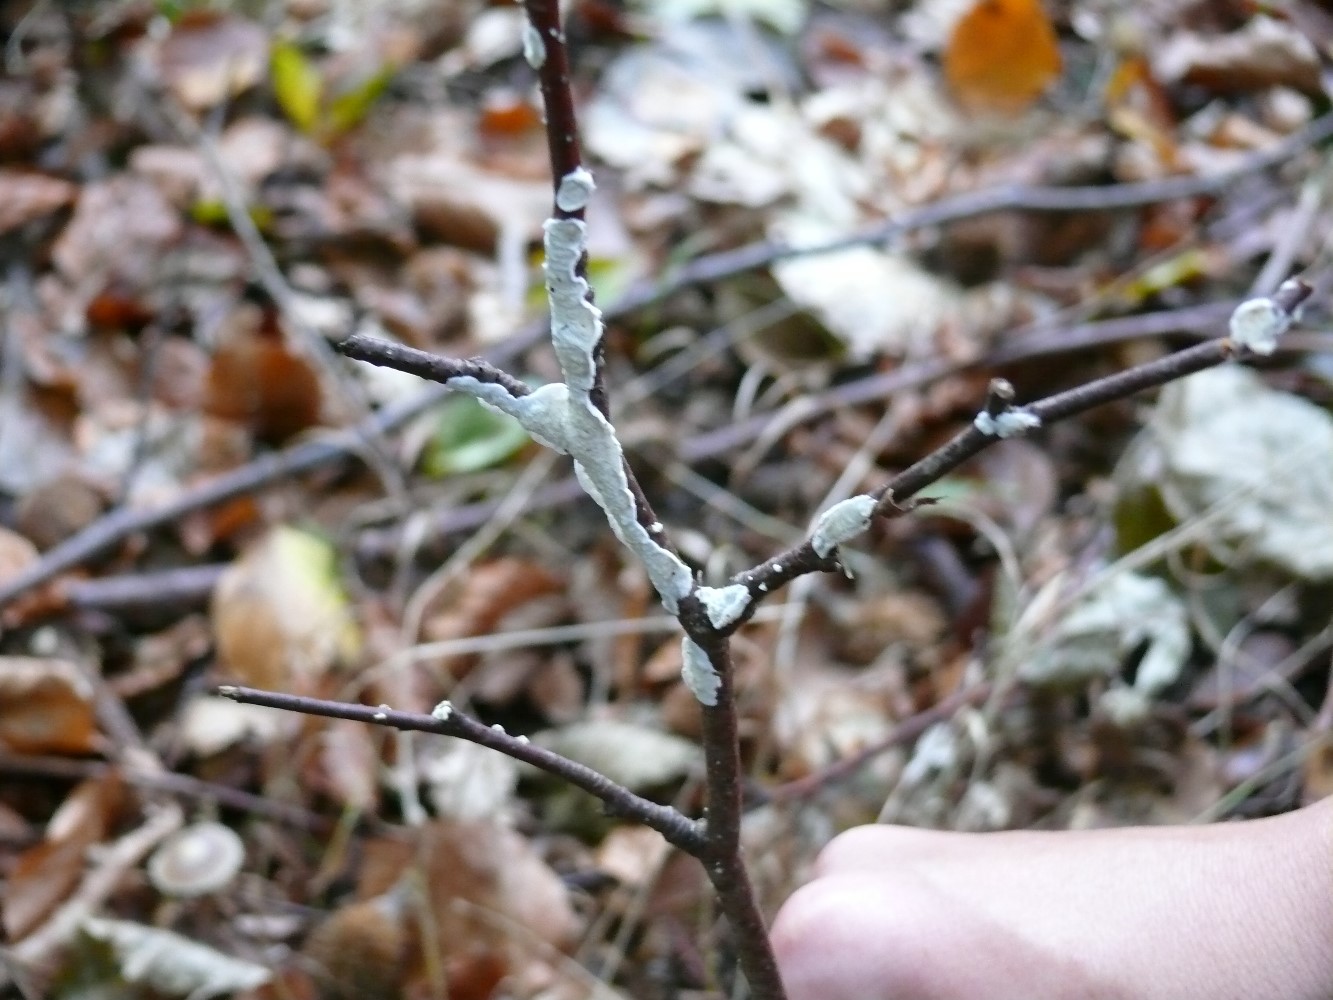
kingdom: Fungi
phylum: Basidiomycota
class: Agaricomycetes
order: Polyporales
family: Irpicaceae
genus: Byssomerulius
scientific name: Byssomerulius corium
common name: læder-åresvamp
